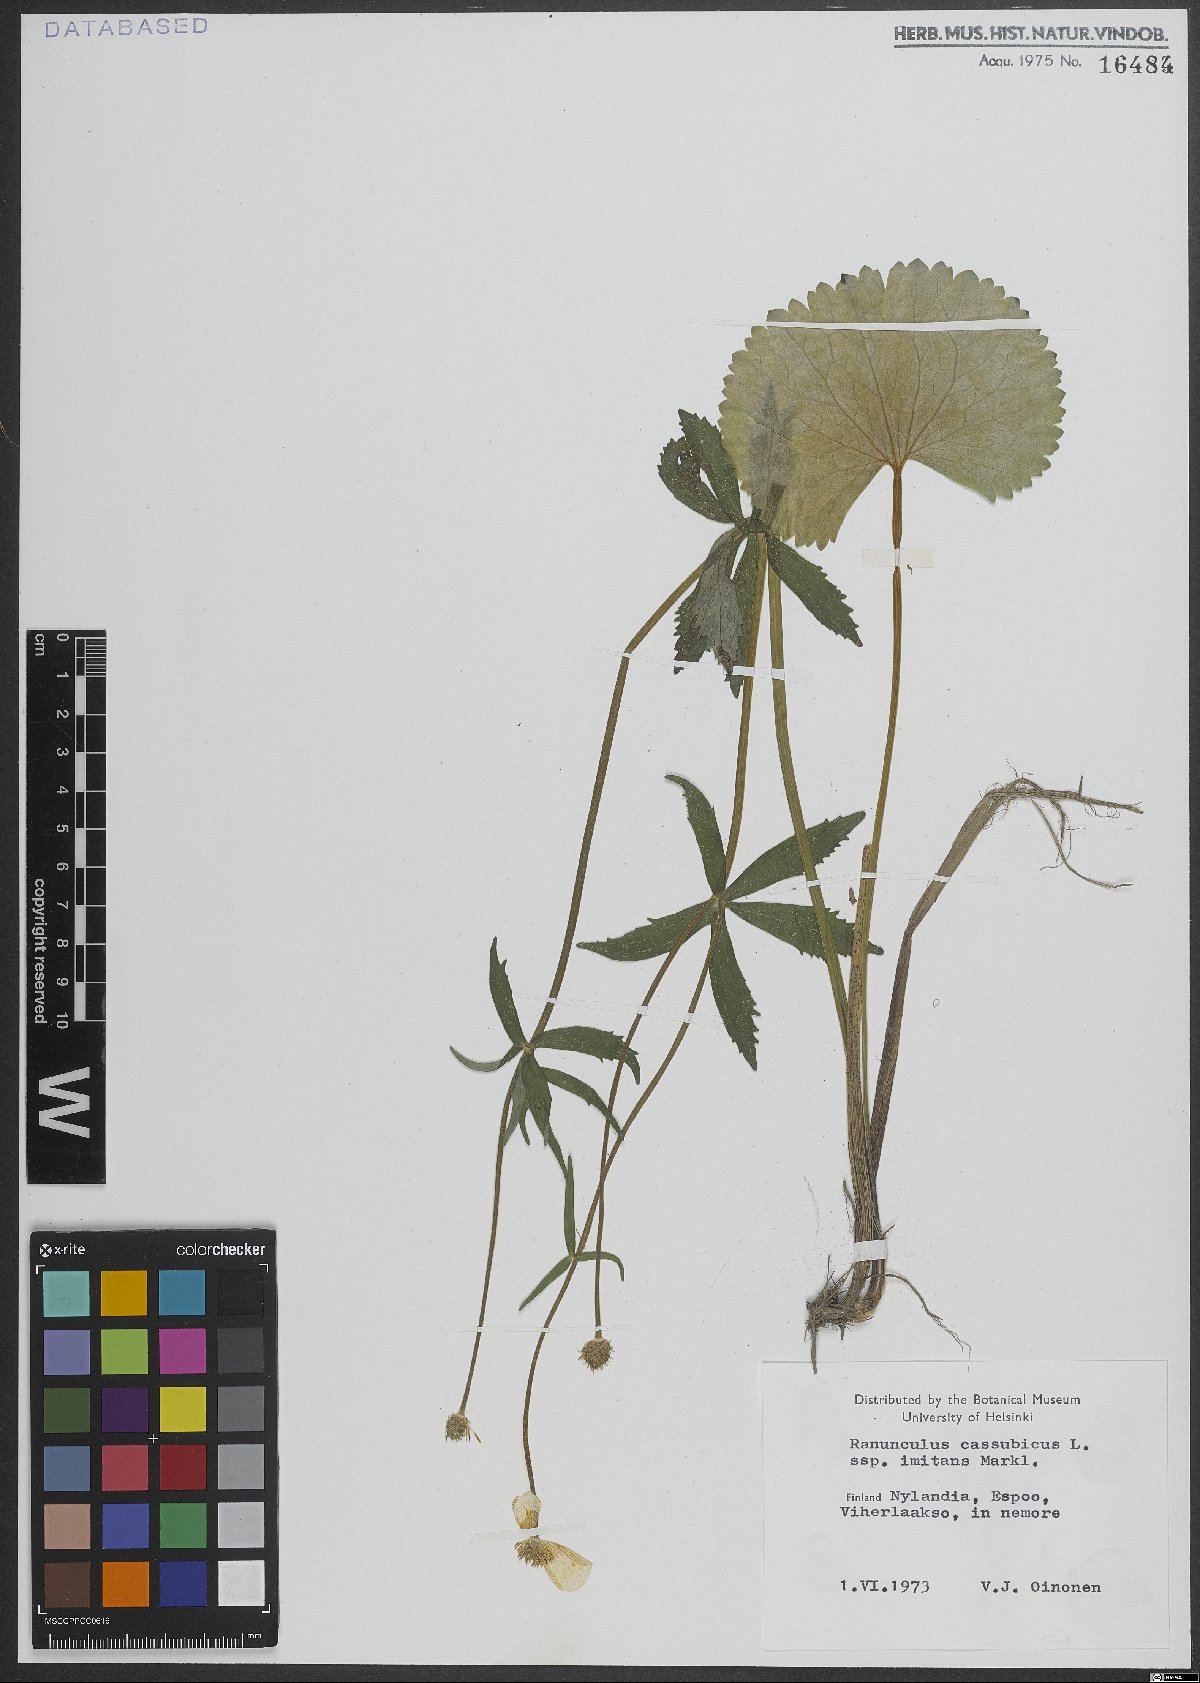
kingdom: Plantae
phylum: Tracheophyta
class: Magnoliopsida
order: Ranunculales
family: Ranunculaceae
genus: Ranunculus
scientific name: Ranunculus cassubicus
